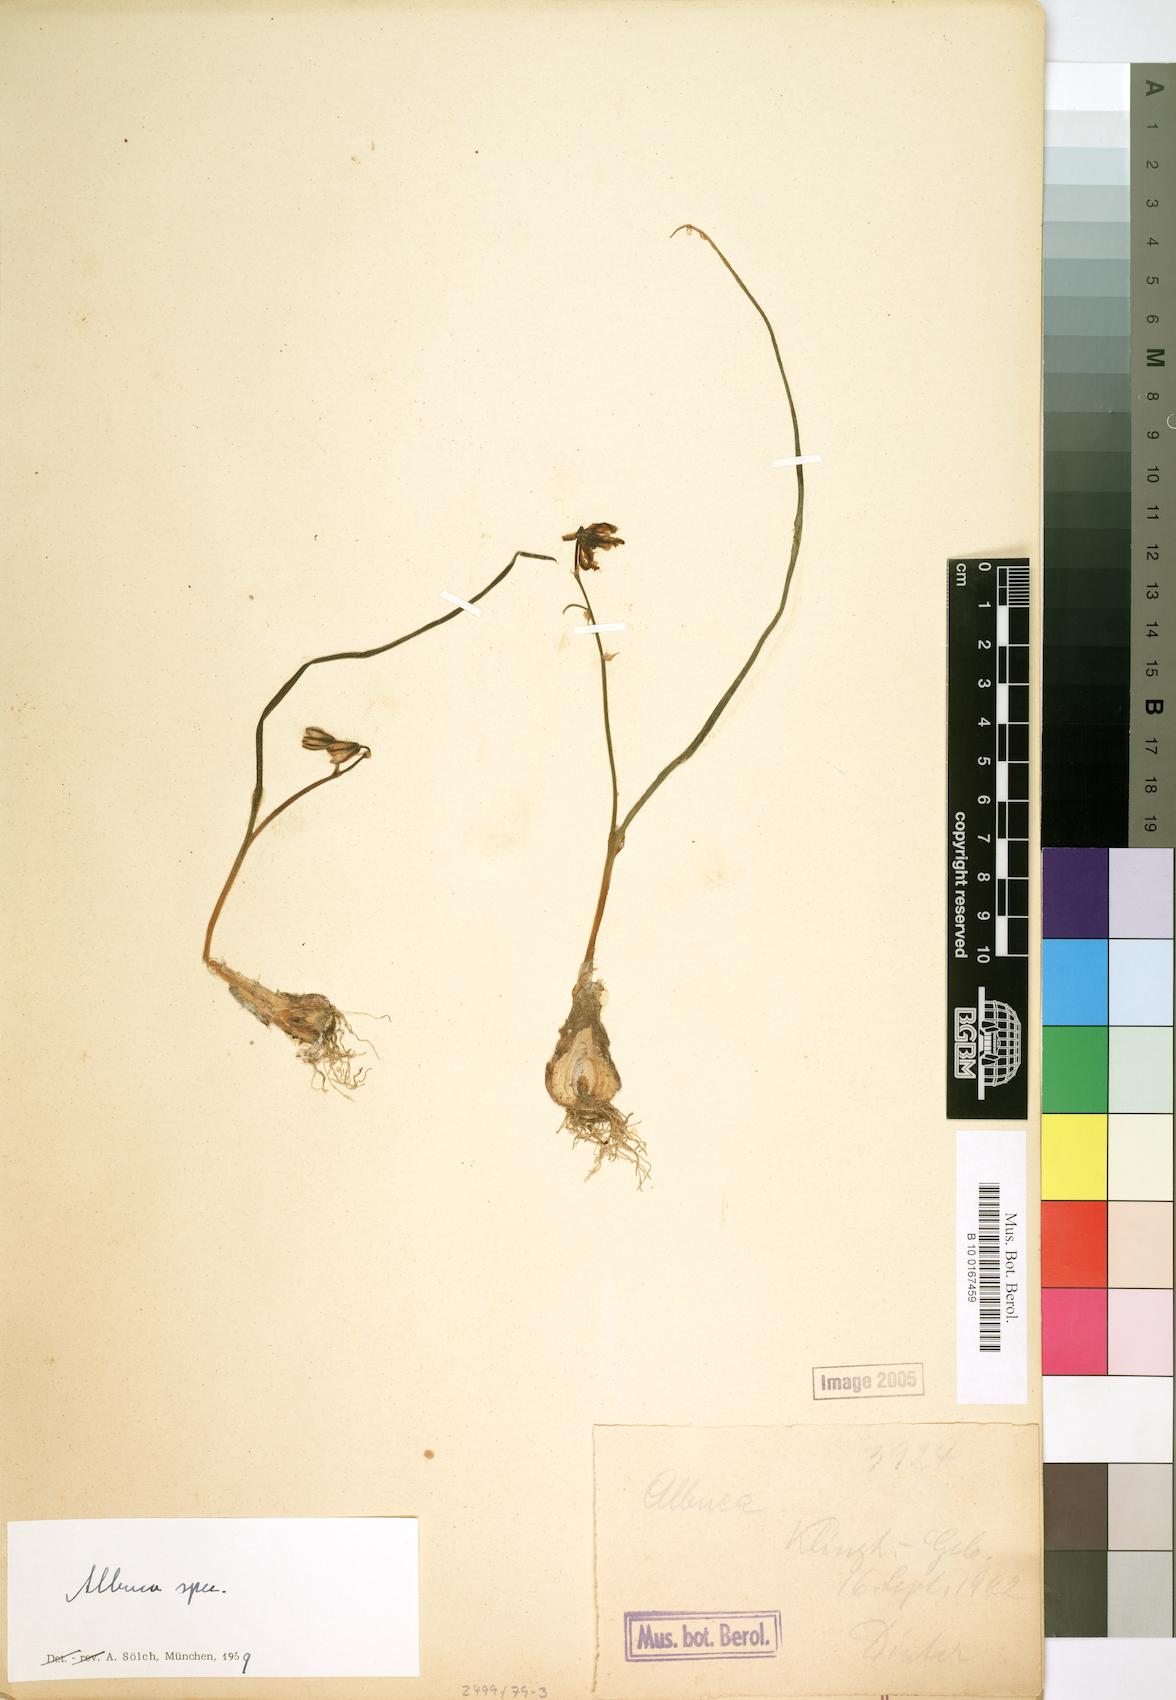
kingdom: Plantae
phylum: Tracheophyta
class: Liliopsida
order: Asparagales
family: Asparagaceae
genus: Albuca
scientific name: Albuca
